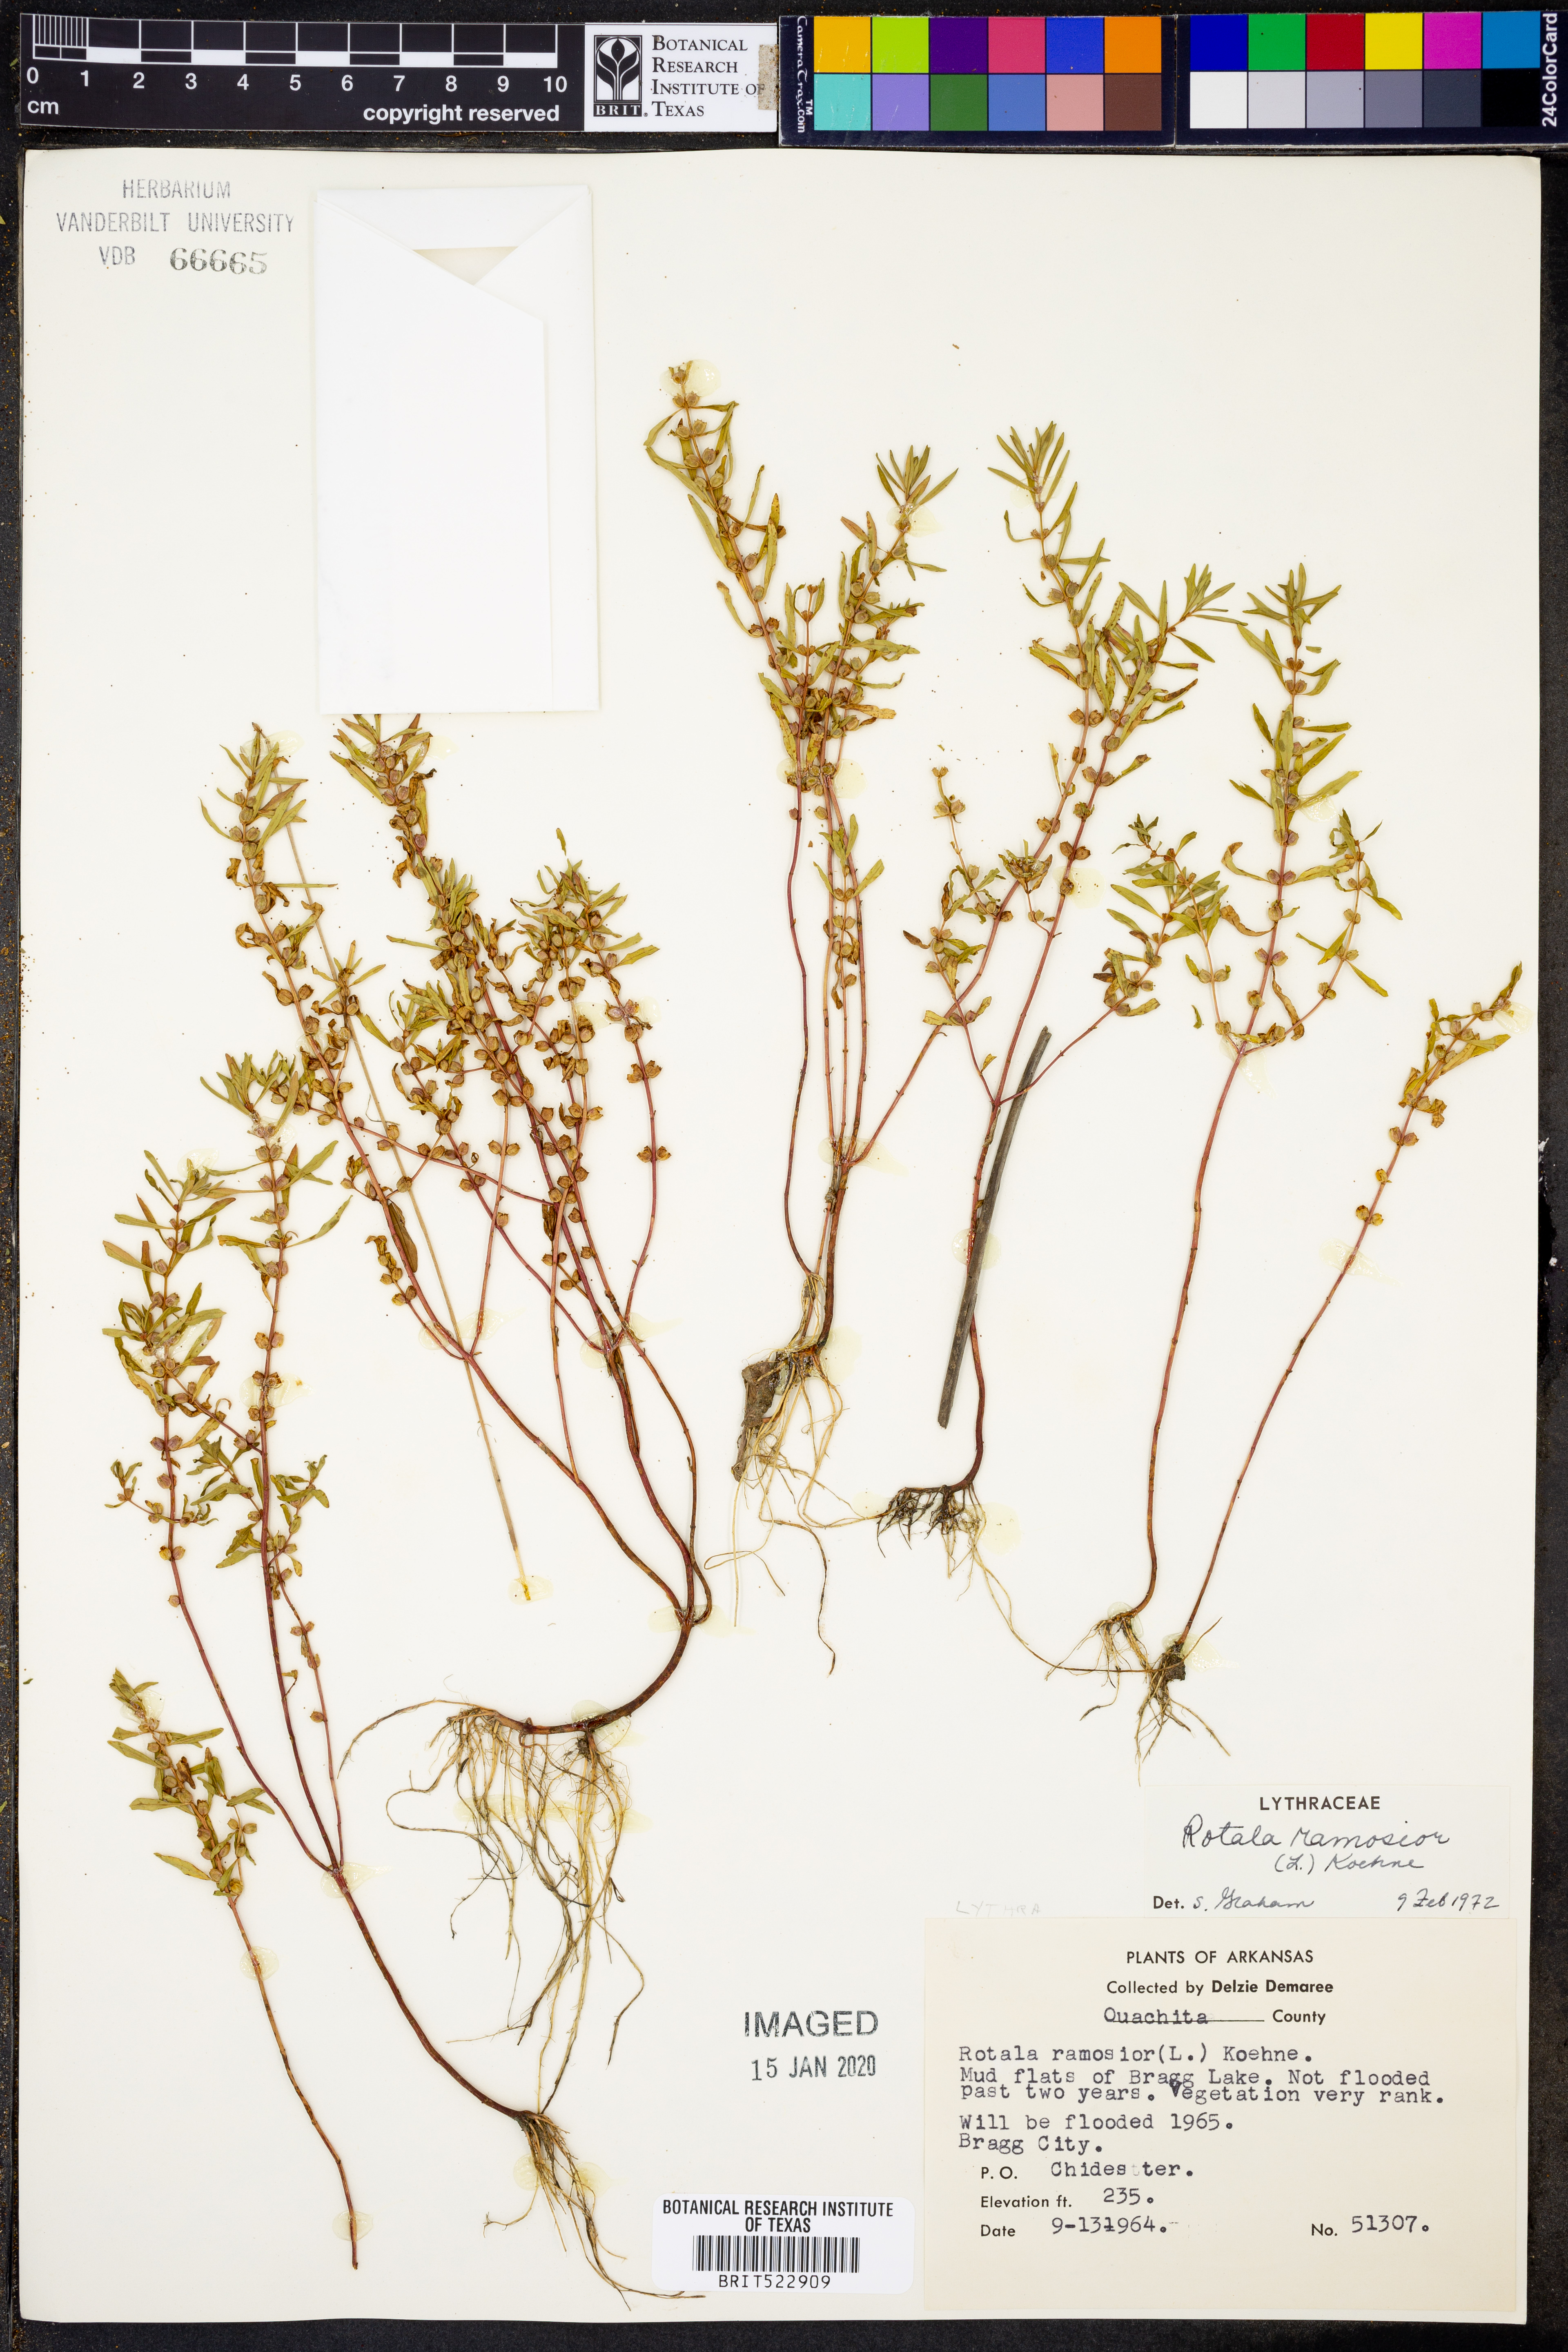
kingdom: Plantae
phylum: Tracheophyta
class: Magnoliopsida
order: Myrtales
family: Lythraceae
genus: Rotala
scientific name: Rotala ramosior
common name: Lowland rotala
